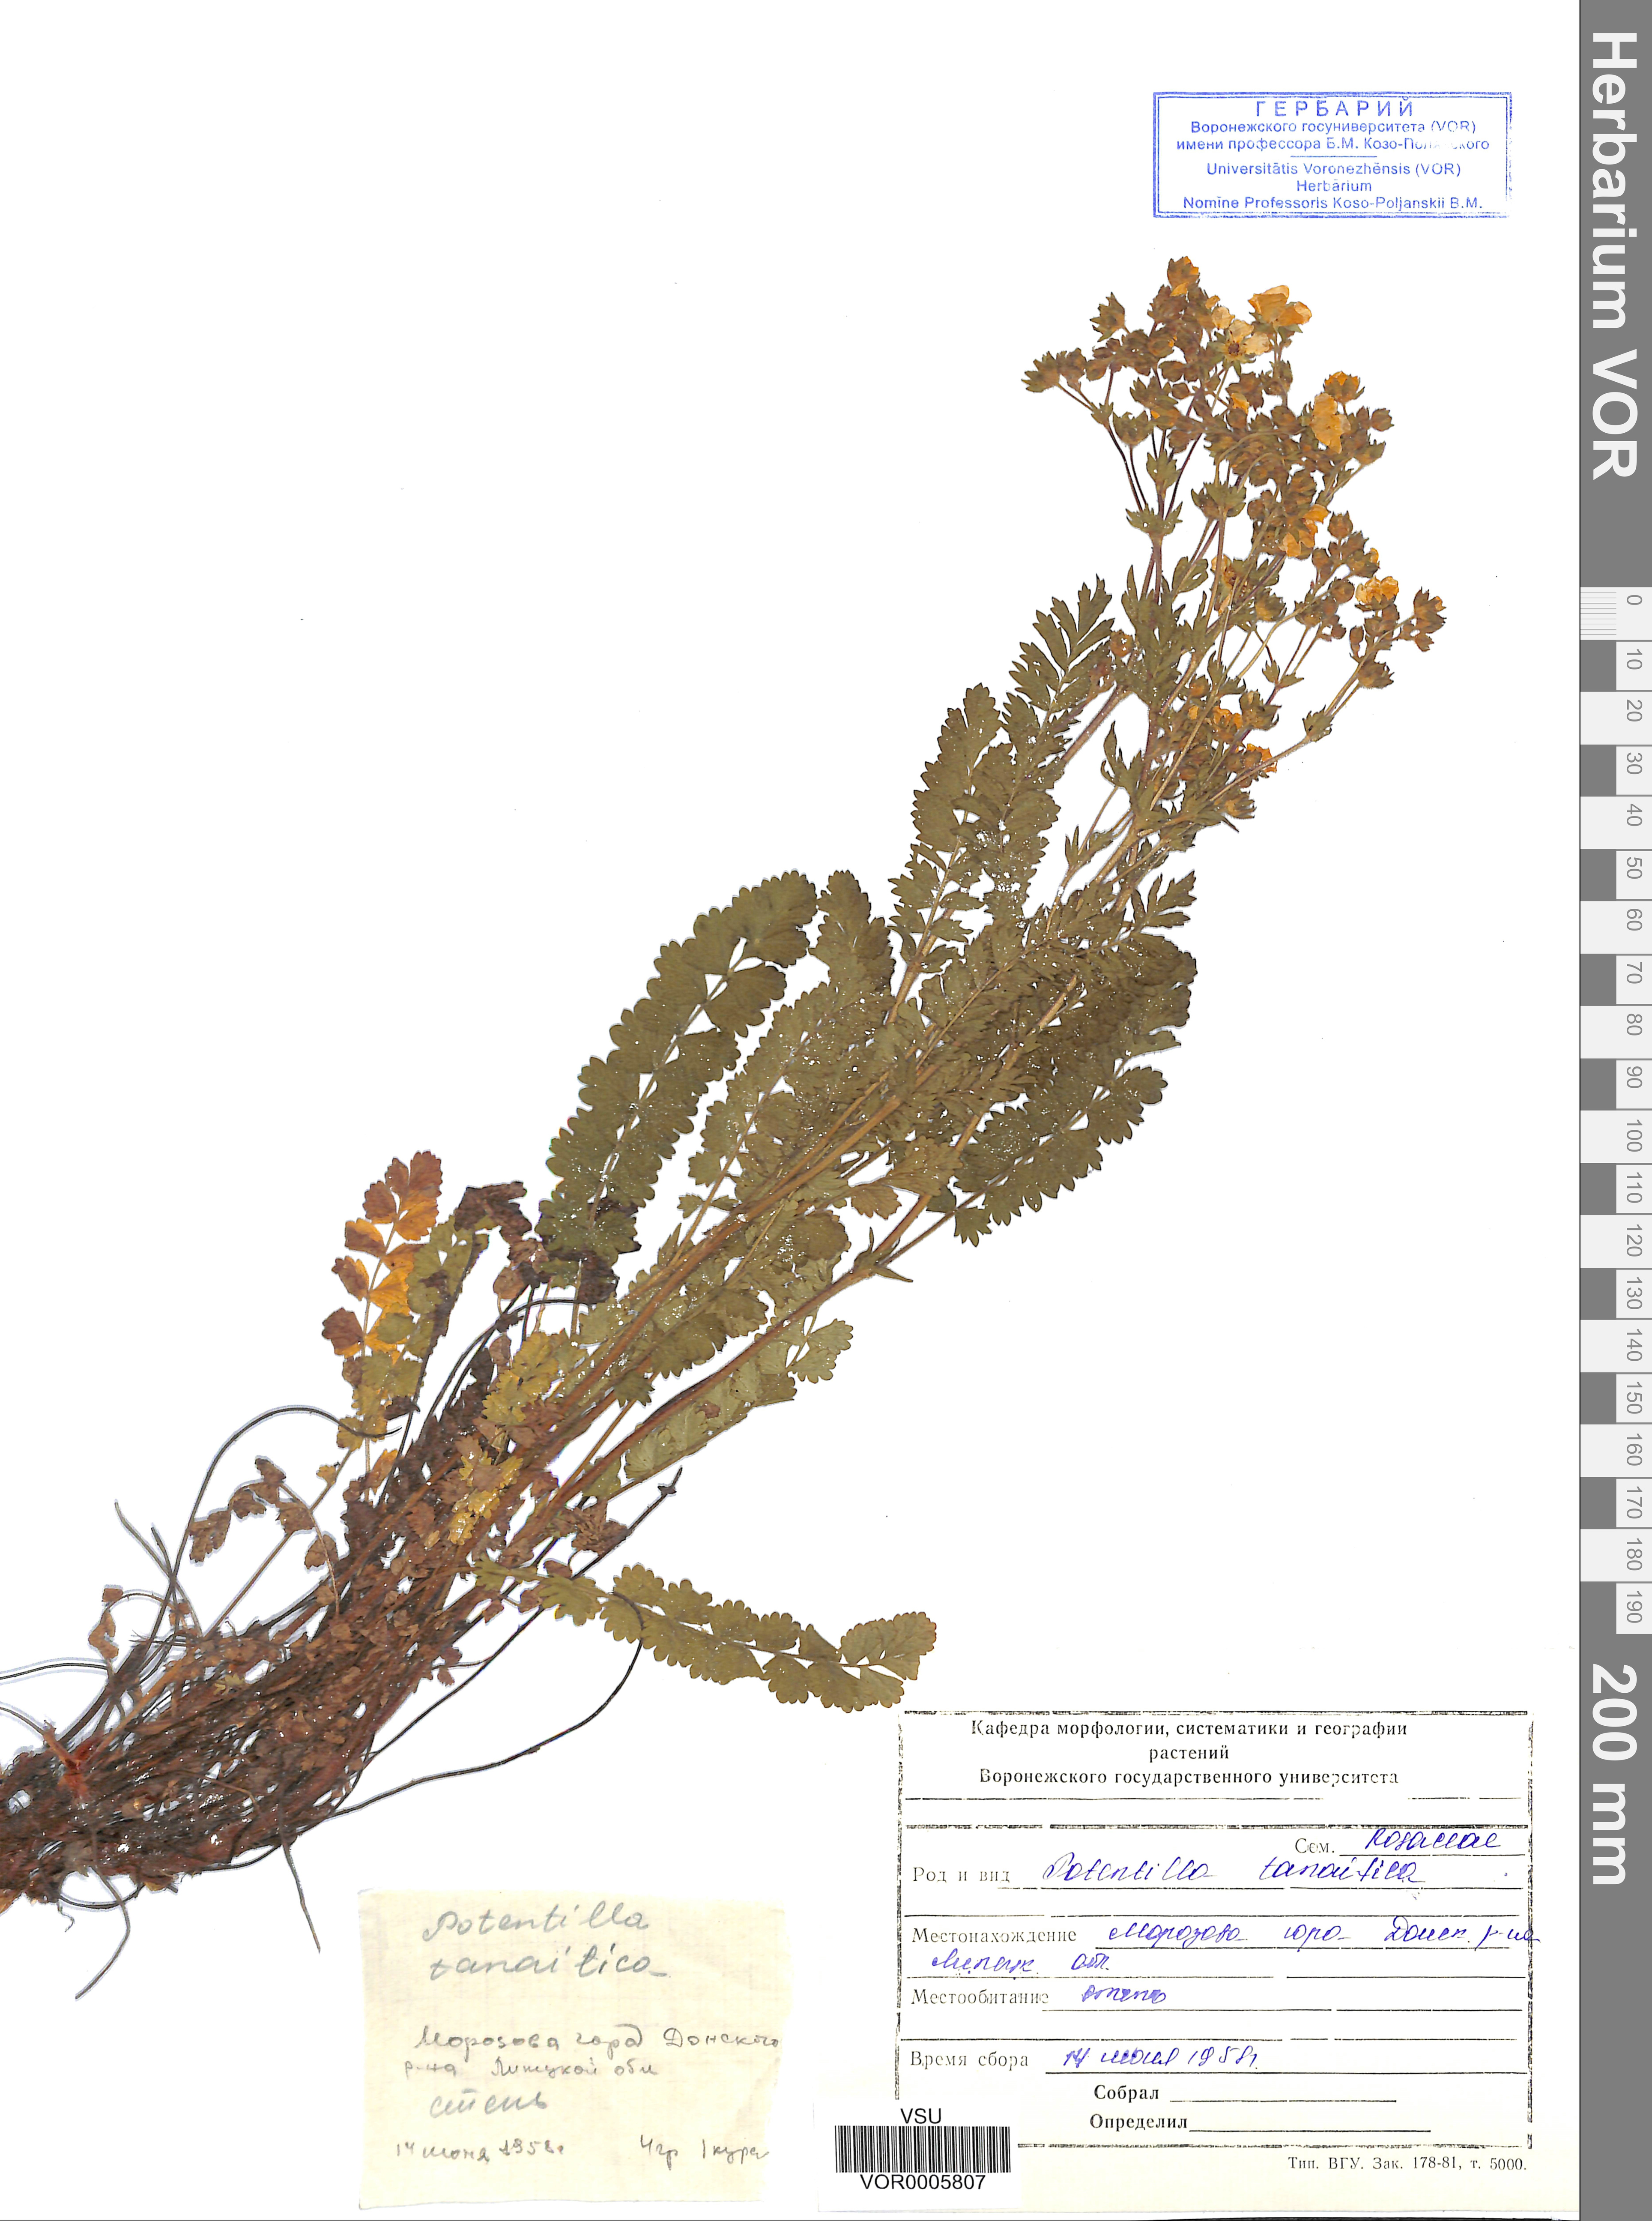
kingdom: Plantae
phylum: Tracheophyta
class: Magnoliopsida
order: Rosales
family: Rosaceae
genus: Potentilla
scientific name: Potentilla tanaitica
